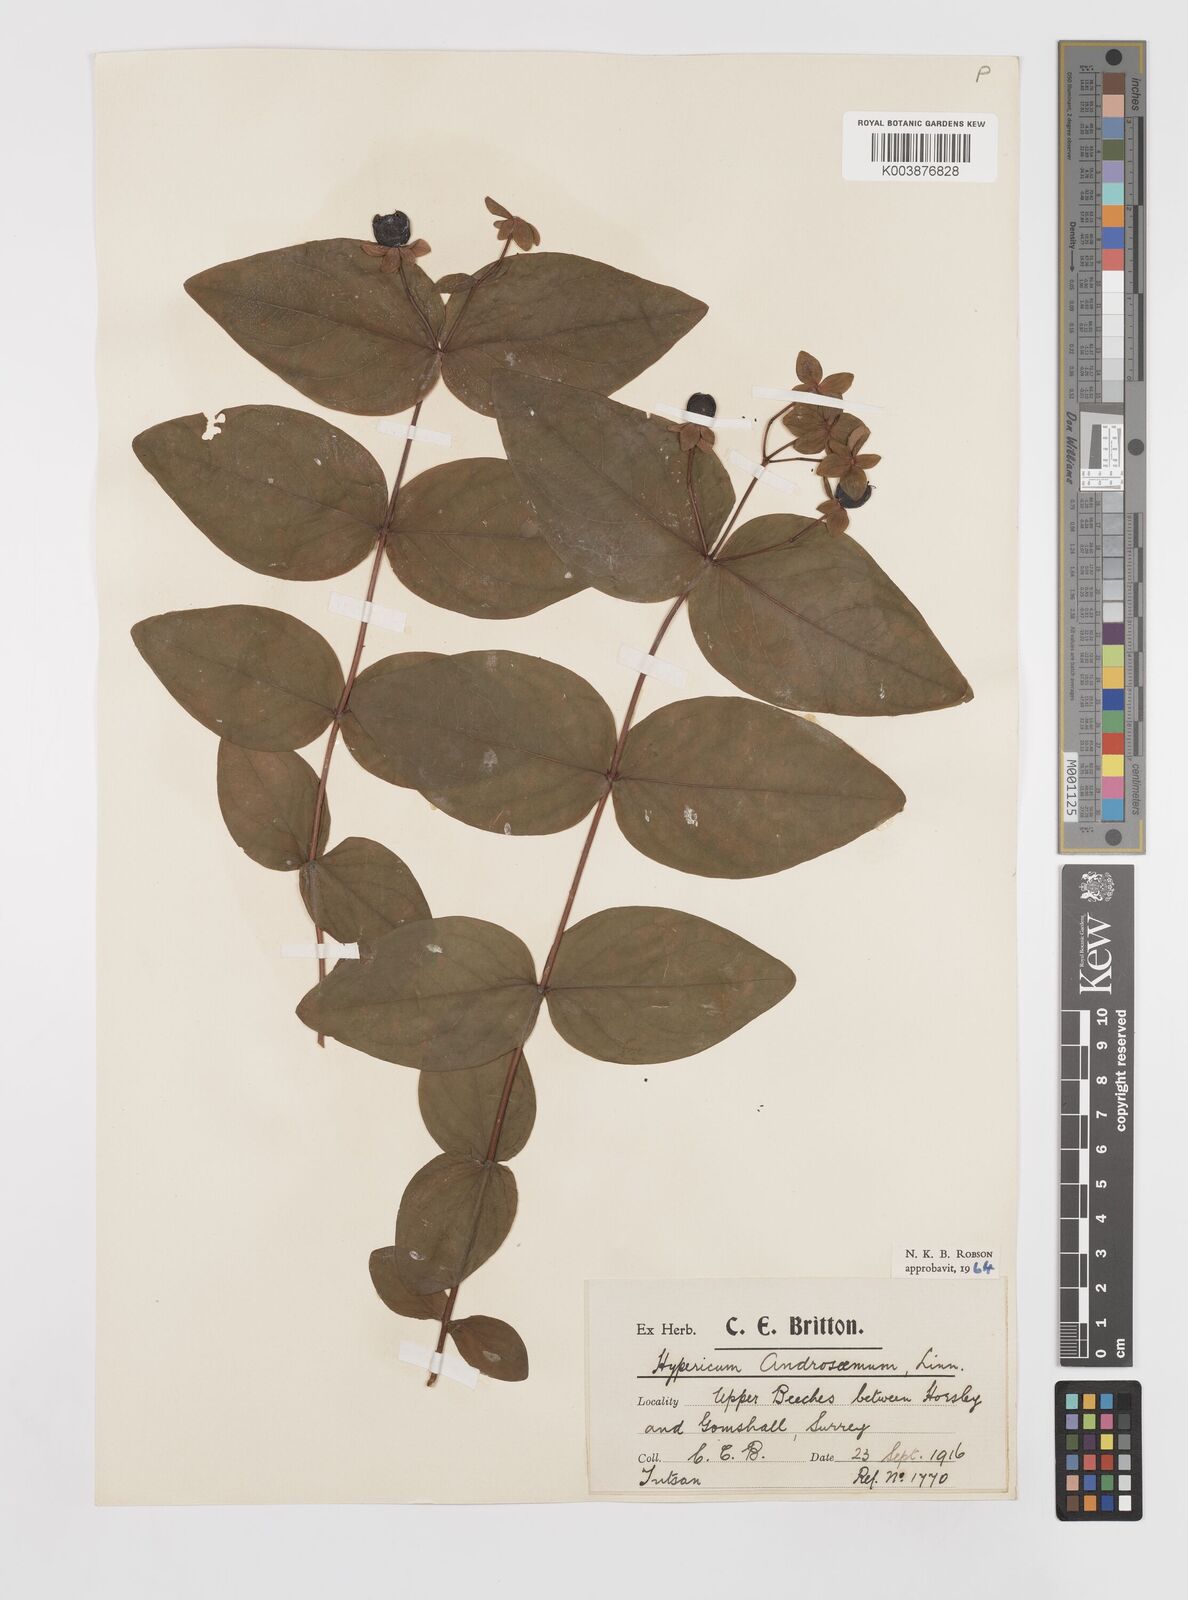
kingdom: Plantae
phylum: Tracheophyta
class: Magnoliopsida
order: Malpighiales
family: Hypericaceae
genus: Hypericum
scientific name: Hypericum androsaemum
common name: Sweet-amber
